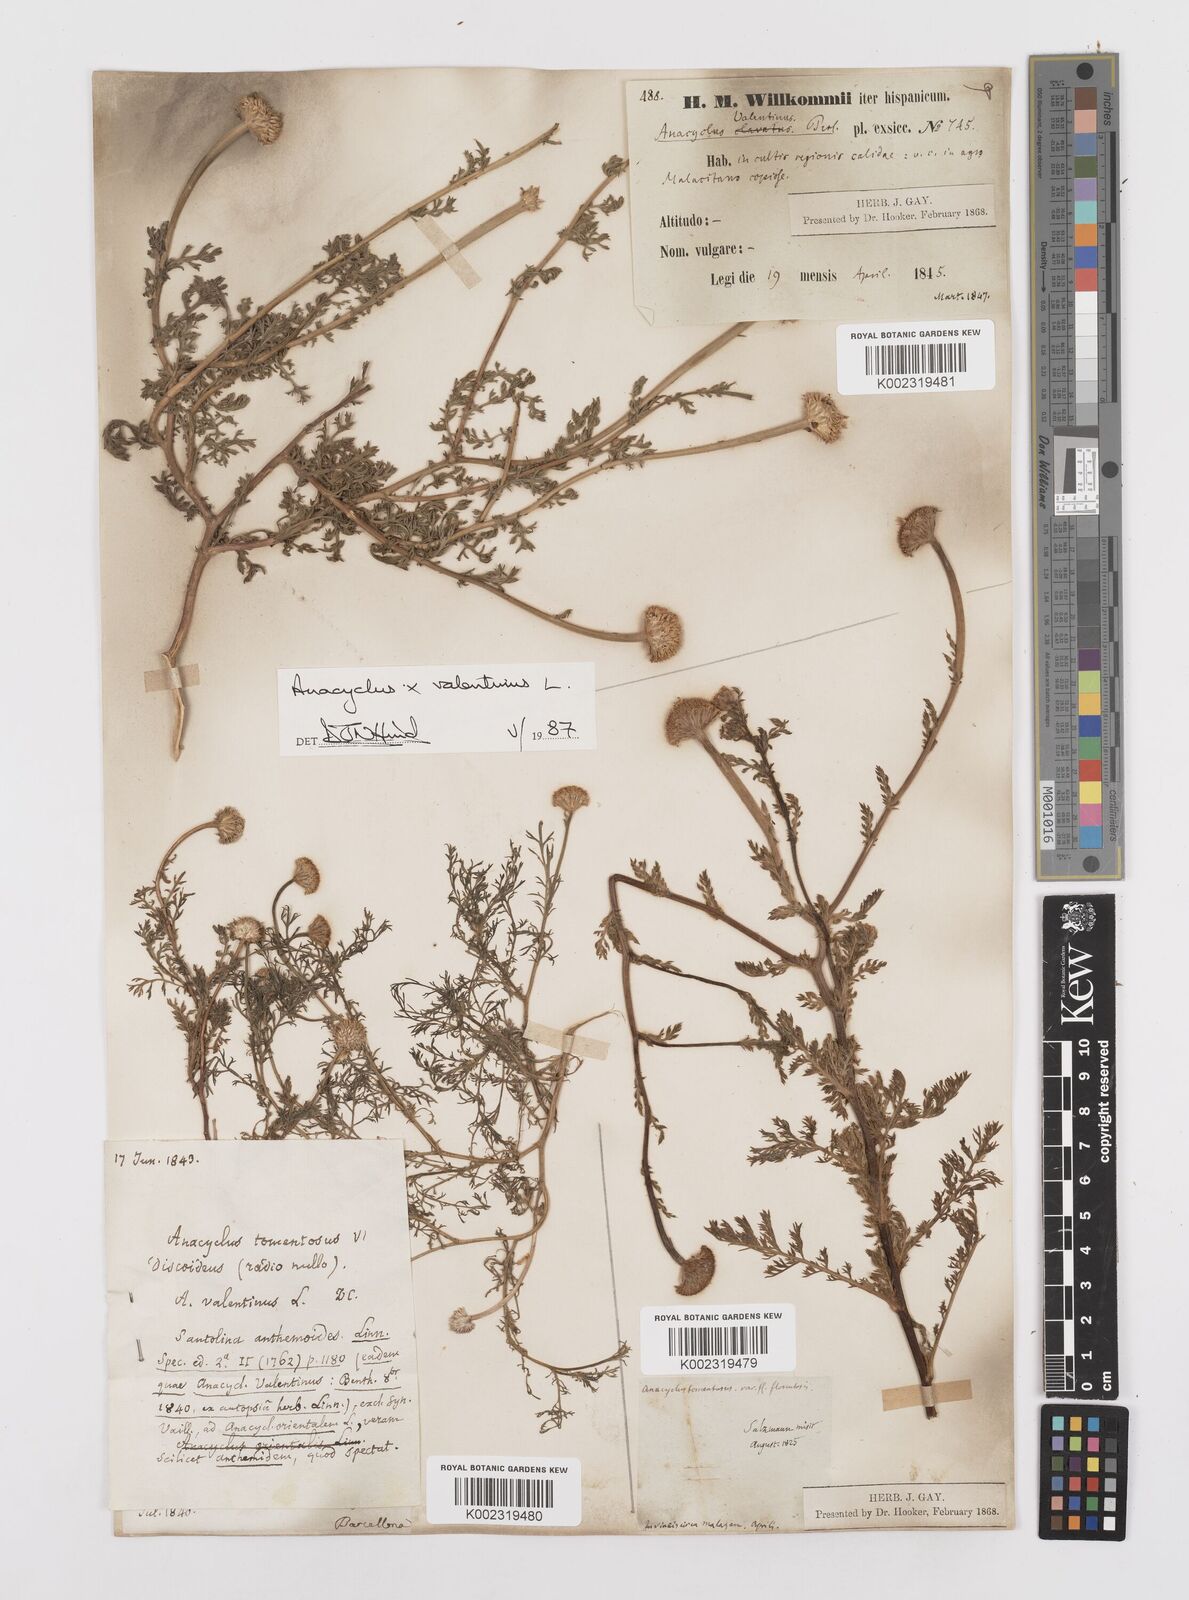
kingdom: Plantae
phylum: Tracheophyta
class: Magnoliopsida
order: Asterales
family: Asteraceae
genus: Anacyclus
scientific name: Anacyclus valentinus
